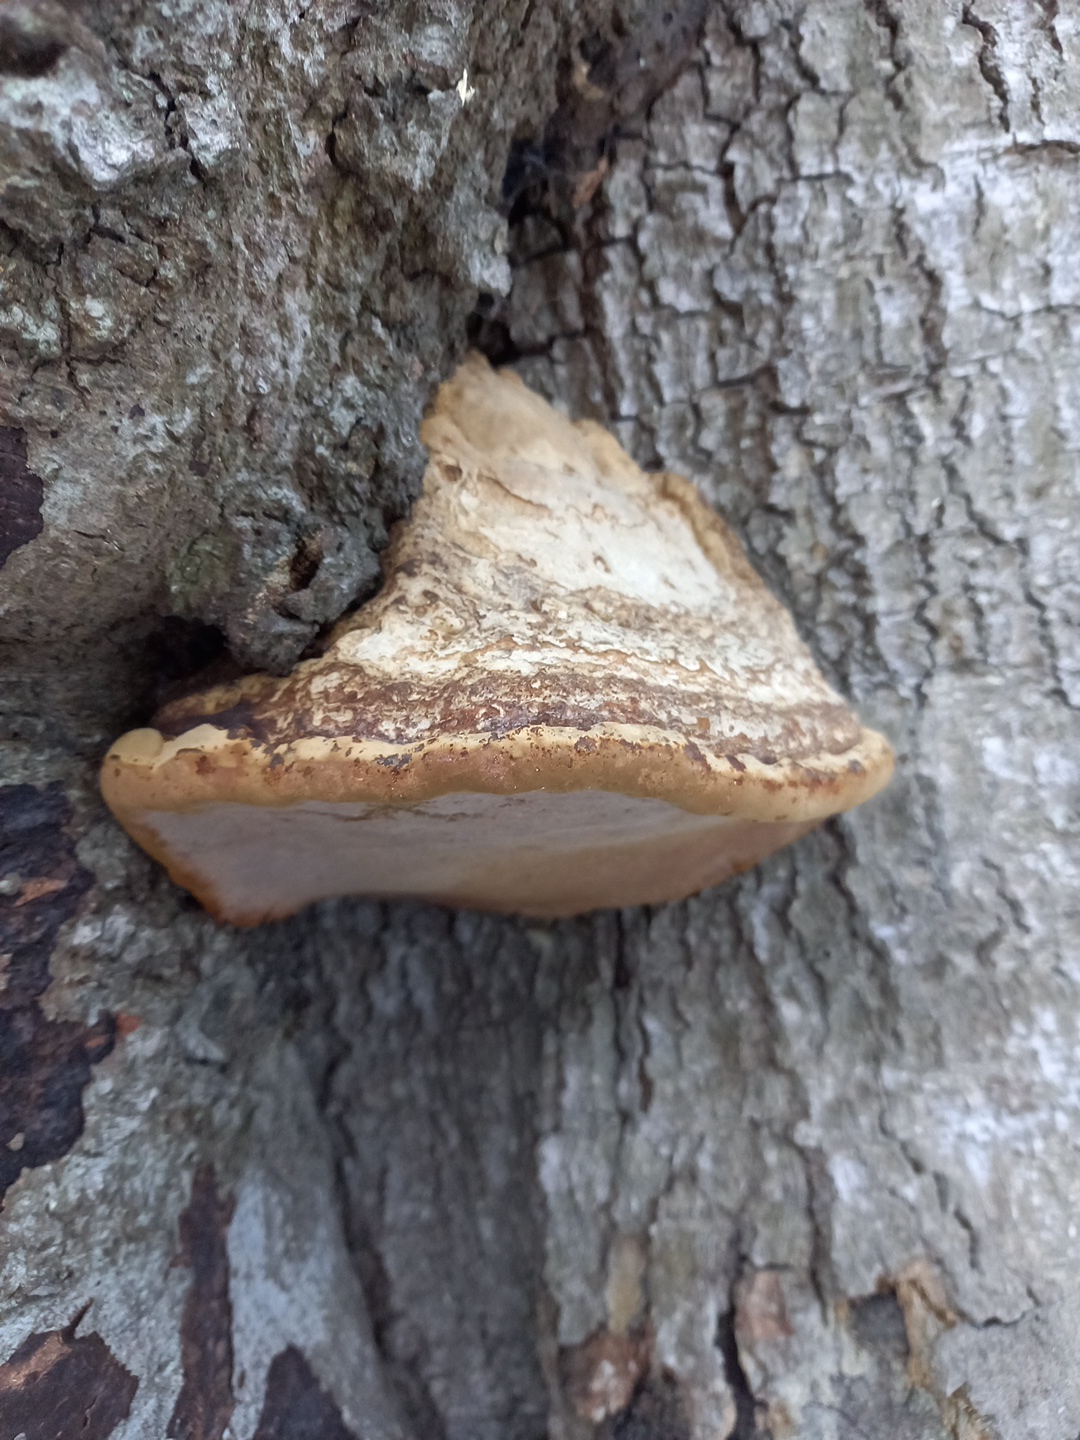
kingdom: Fungi
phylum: Basidiomycota
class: Agaricomycetes
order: Polyporales
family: Polyporaceae
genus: Fomes
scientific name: Fomes fomentarius
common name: tøndersvamp
